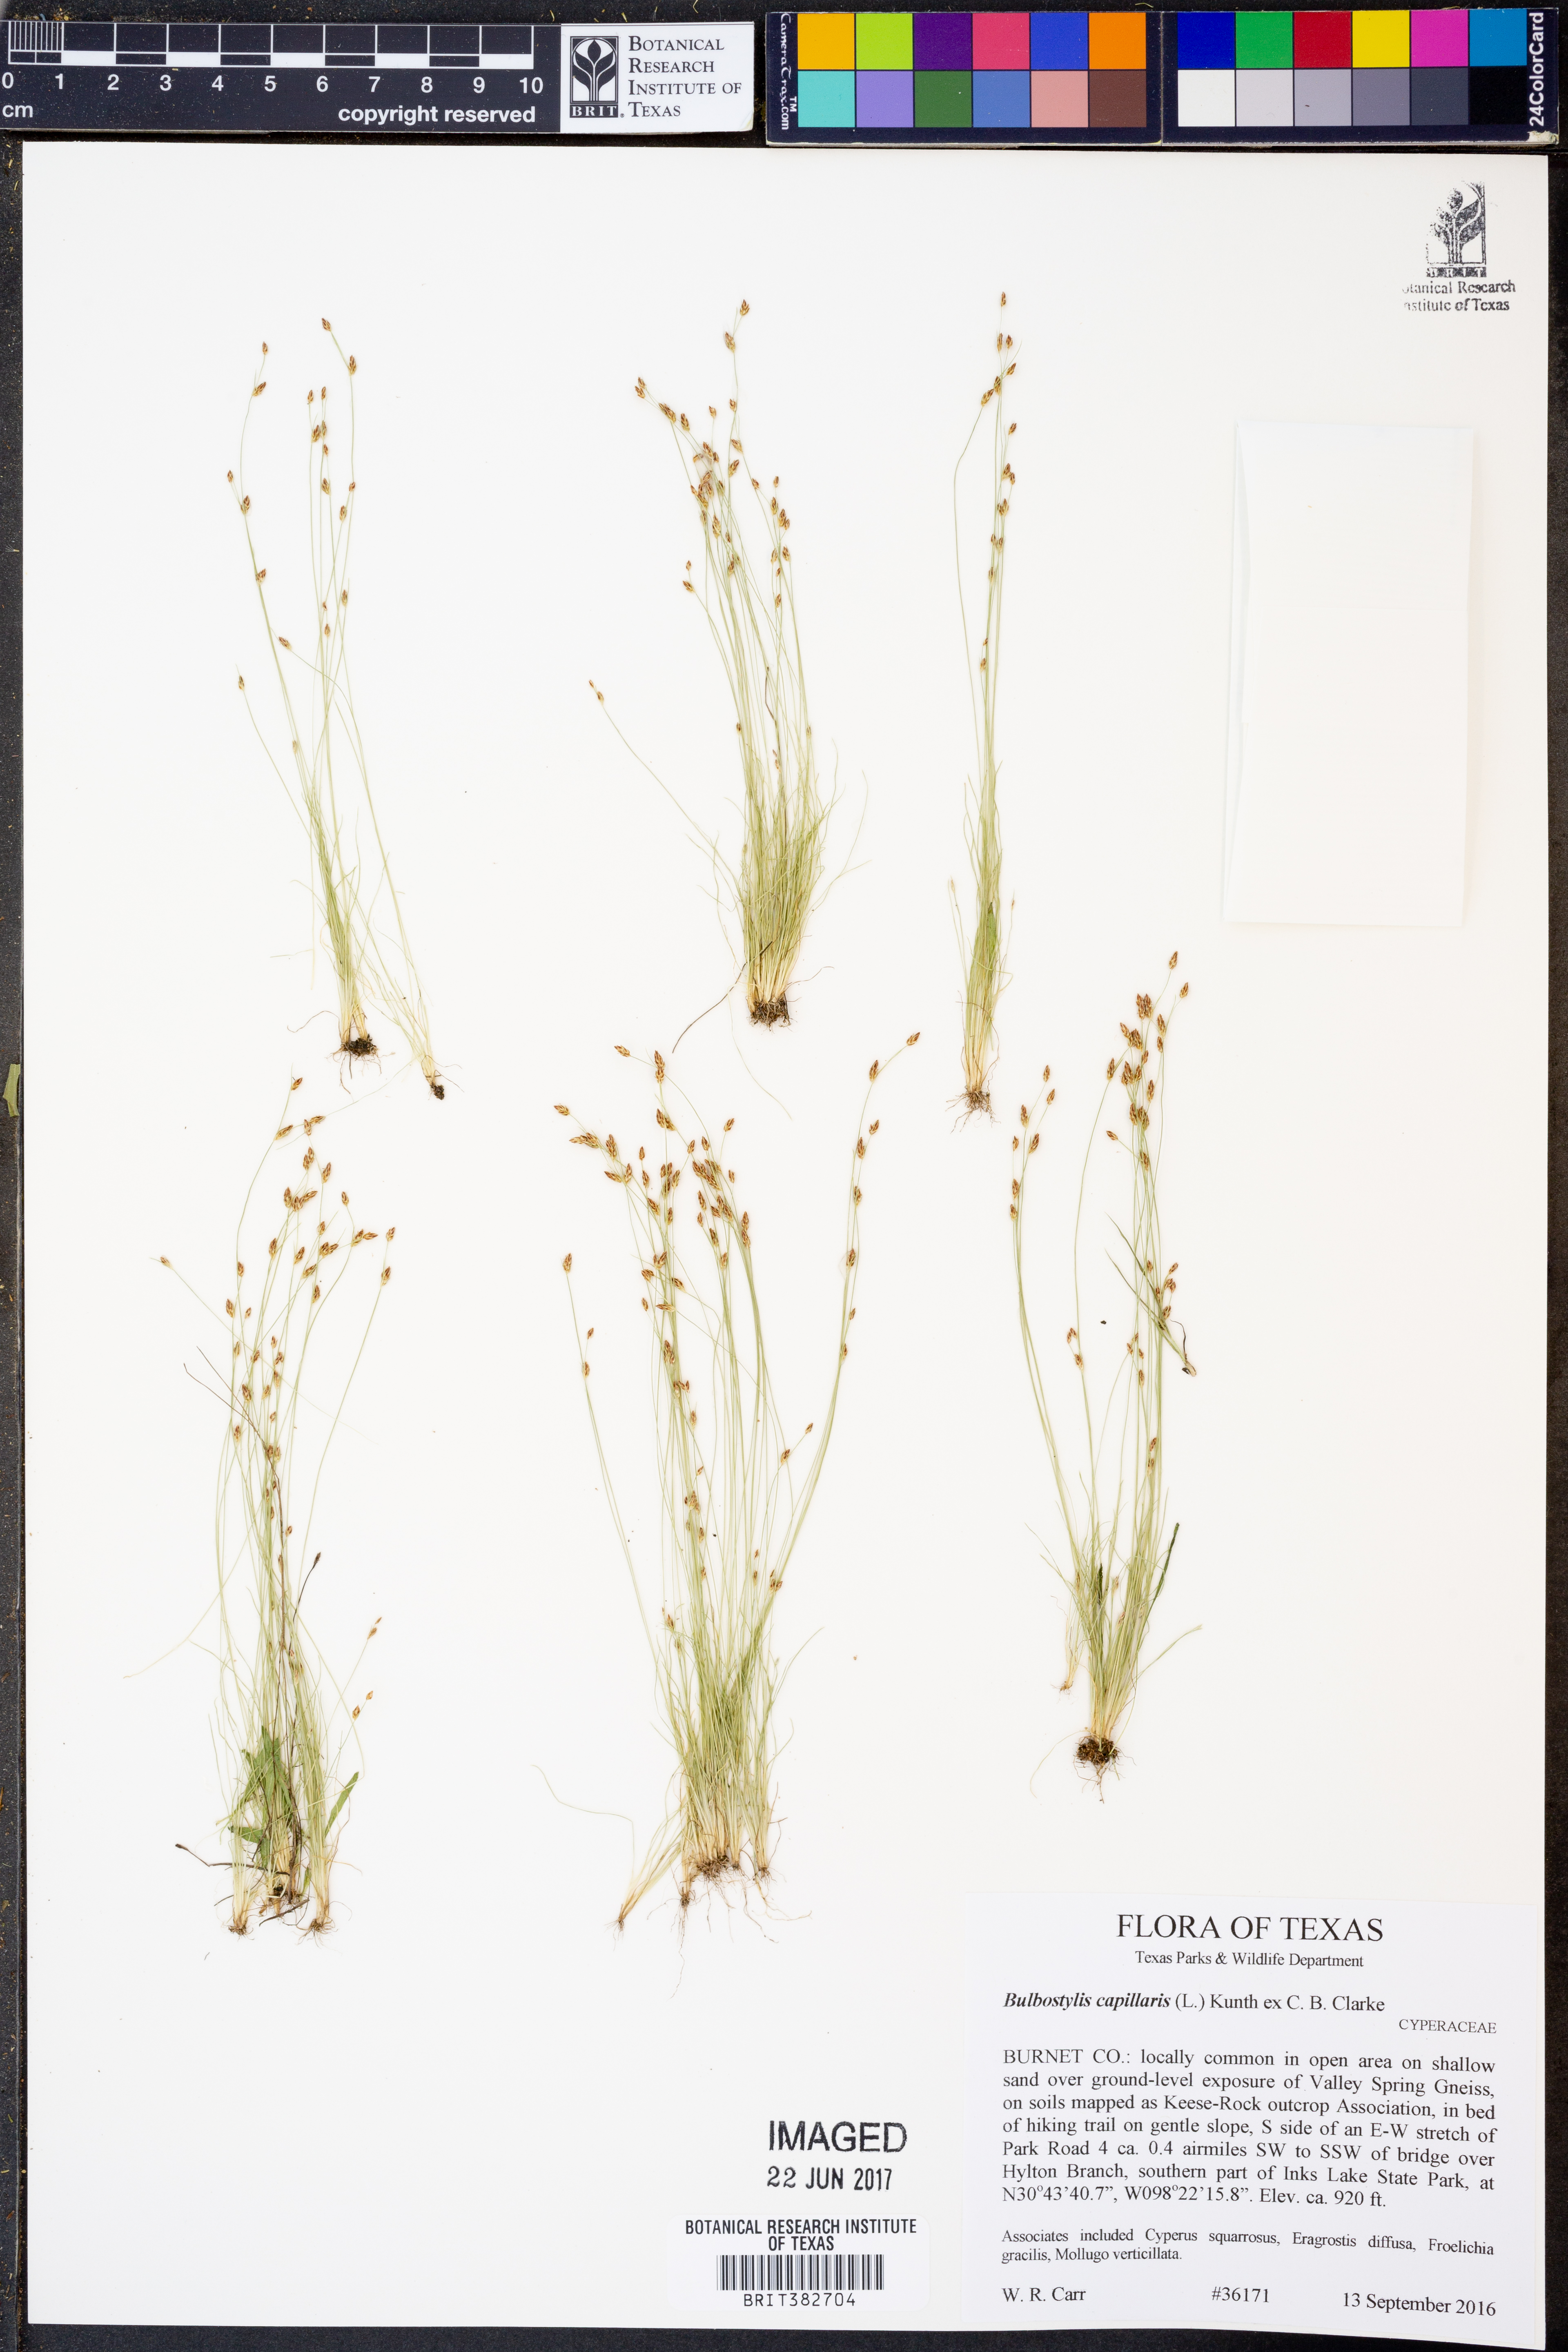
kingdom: Plantae
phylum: Tracheophyta
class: Liliopsida
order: Poales
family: Cyperaceae
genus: Bulbostylis
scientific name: Bulbostylis capillaris
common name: Densetuft hairsedge
